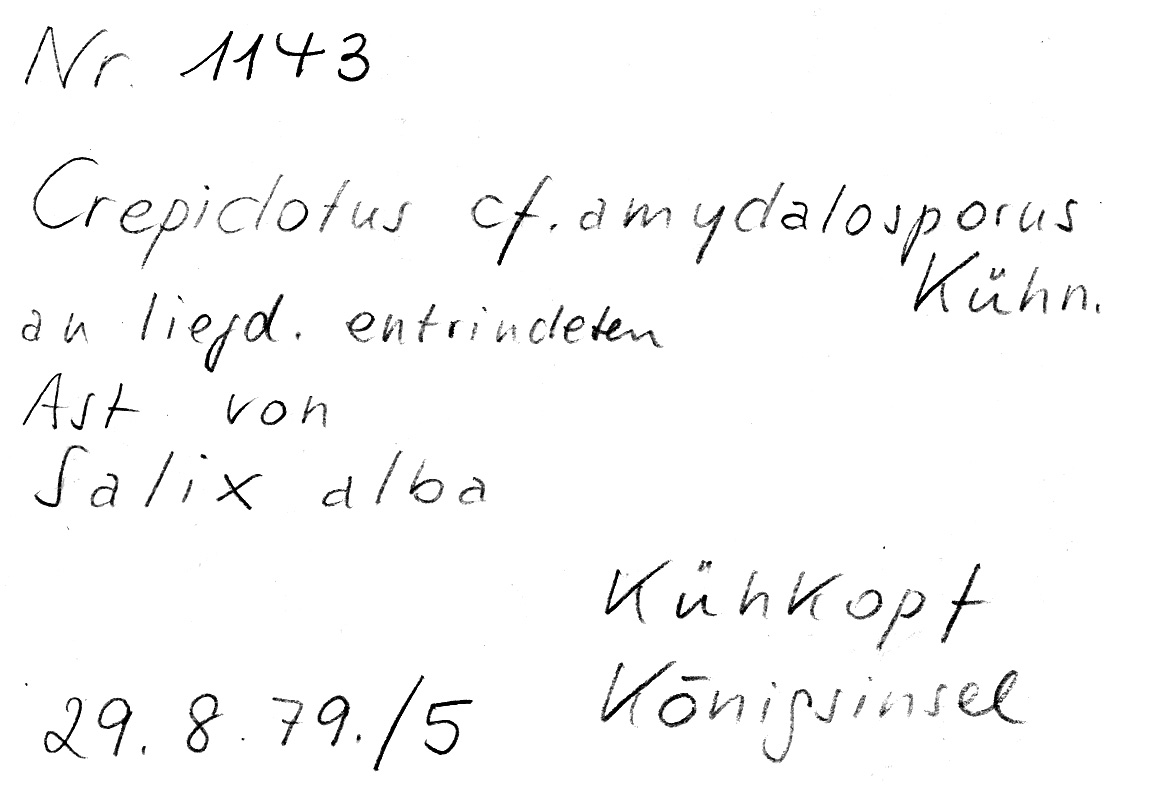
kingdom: Fungi
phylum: Basidiomycota
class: Agaricomycetes
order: Agaricales
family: Crepidotaceae
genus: Crepidotus
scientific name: Crepidotus caspari
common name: Pale oysterling
